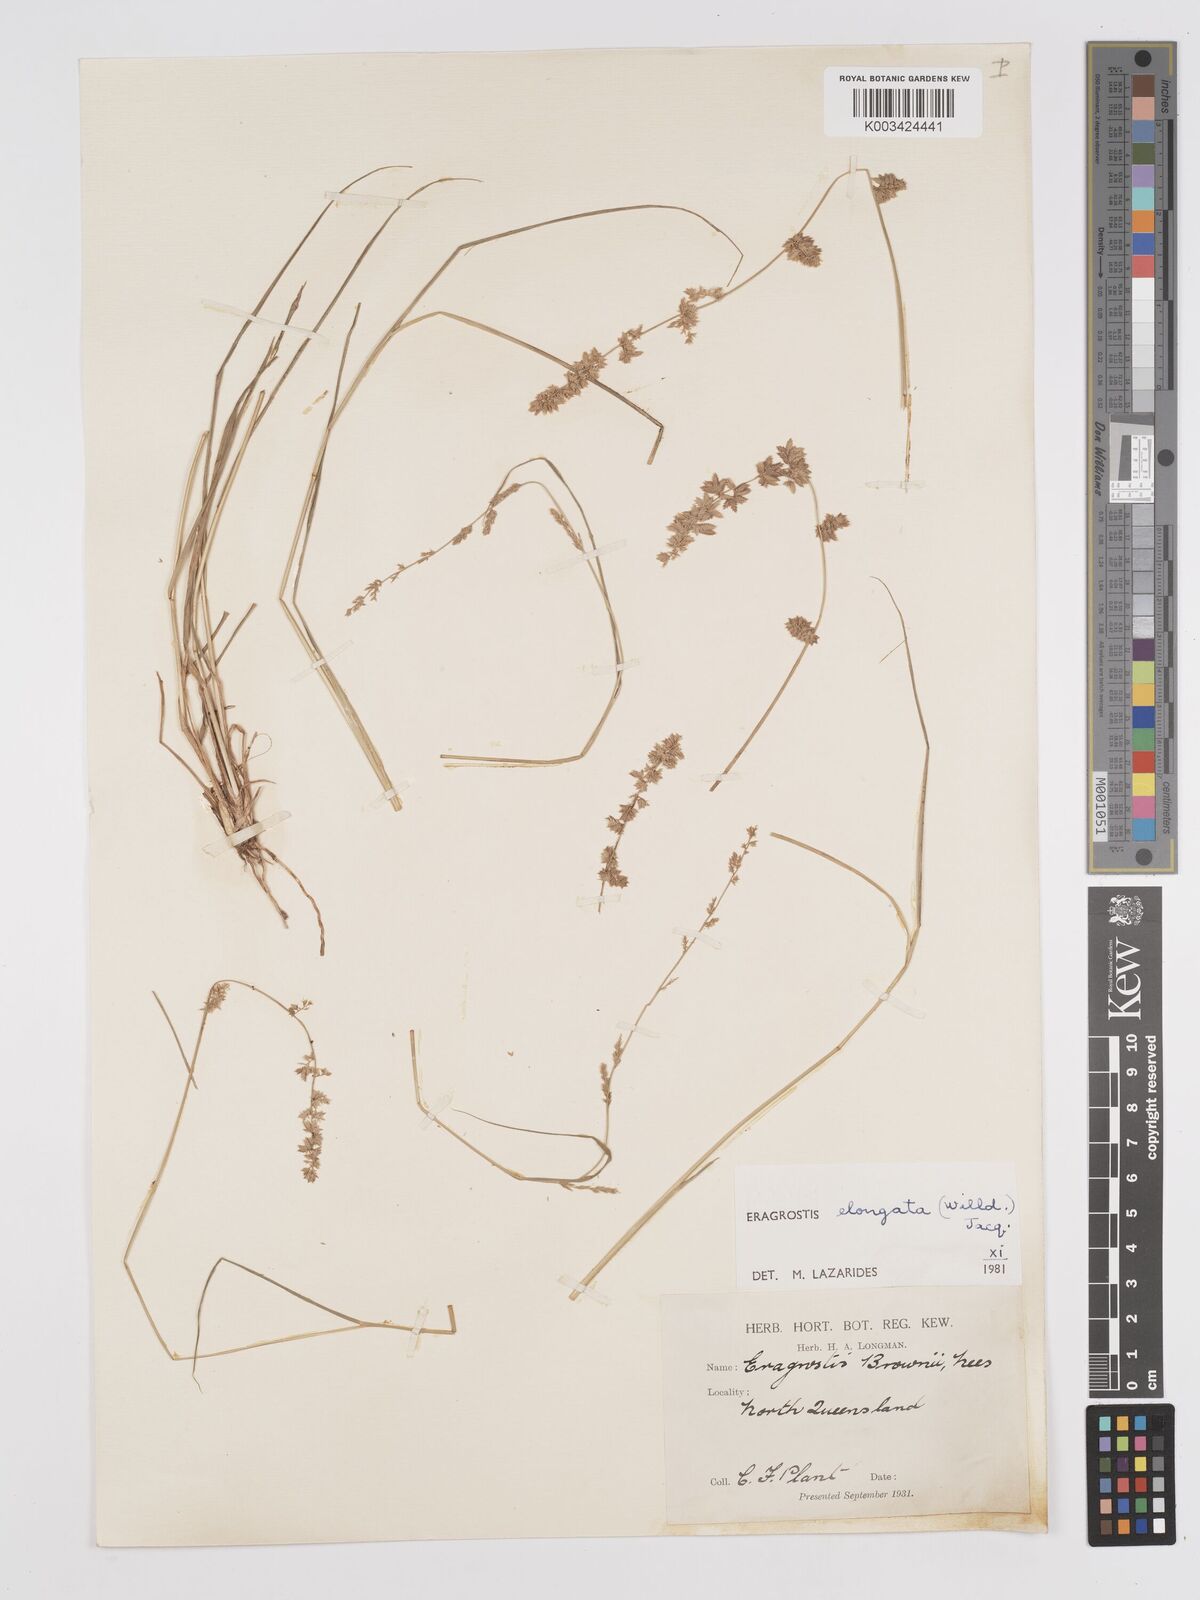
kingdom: Plantae
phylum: Tracheophyta
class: Liliopsida
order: Poales
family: Poaceae
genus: Eragrostis
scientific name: Eragrostis elongata
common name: Long lovegrass
